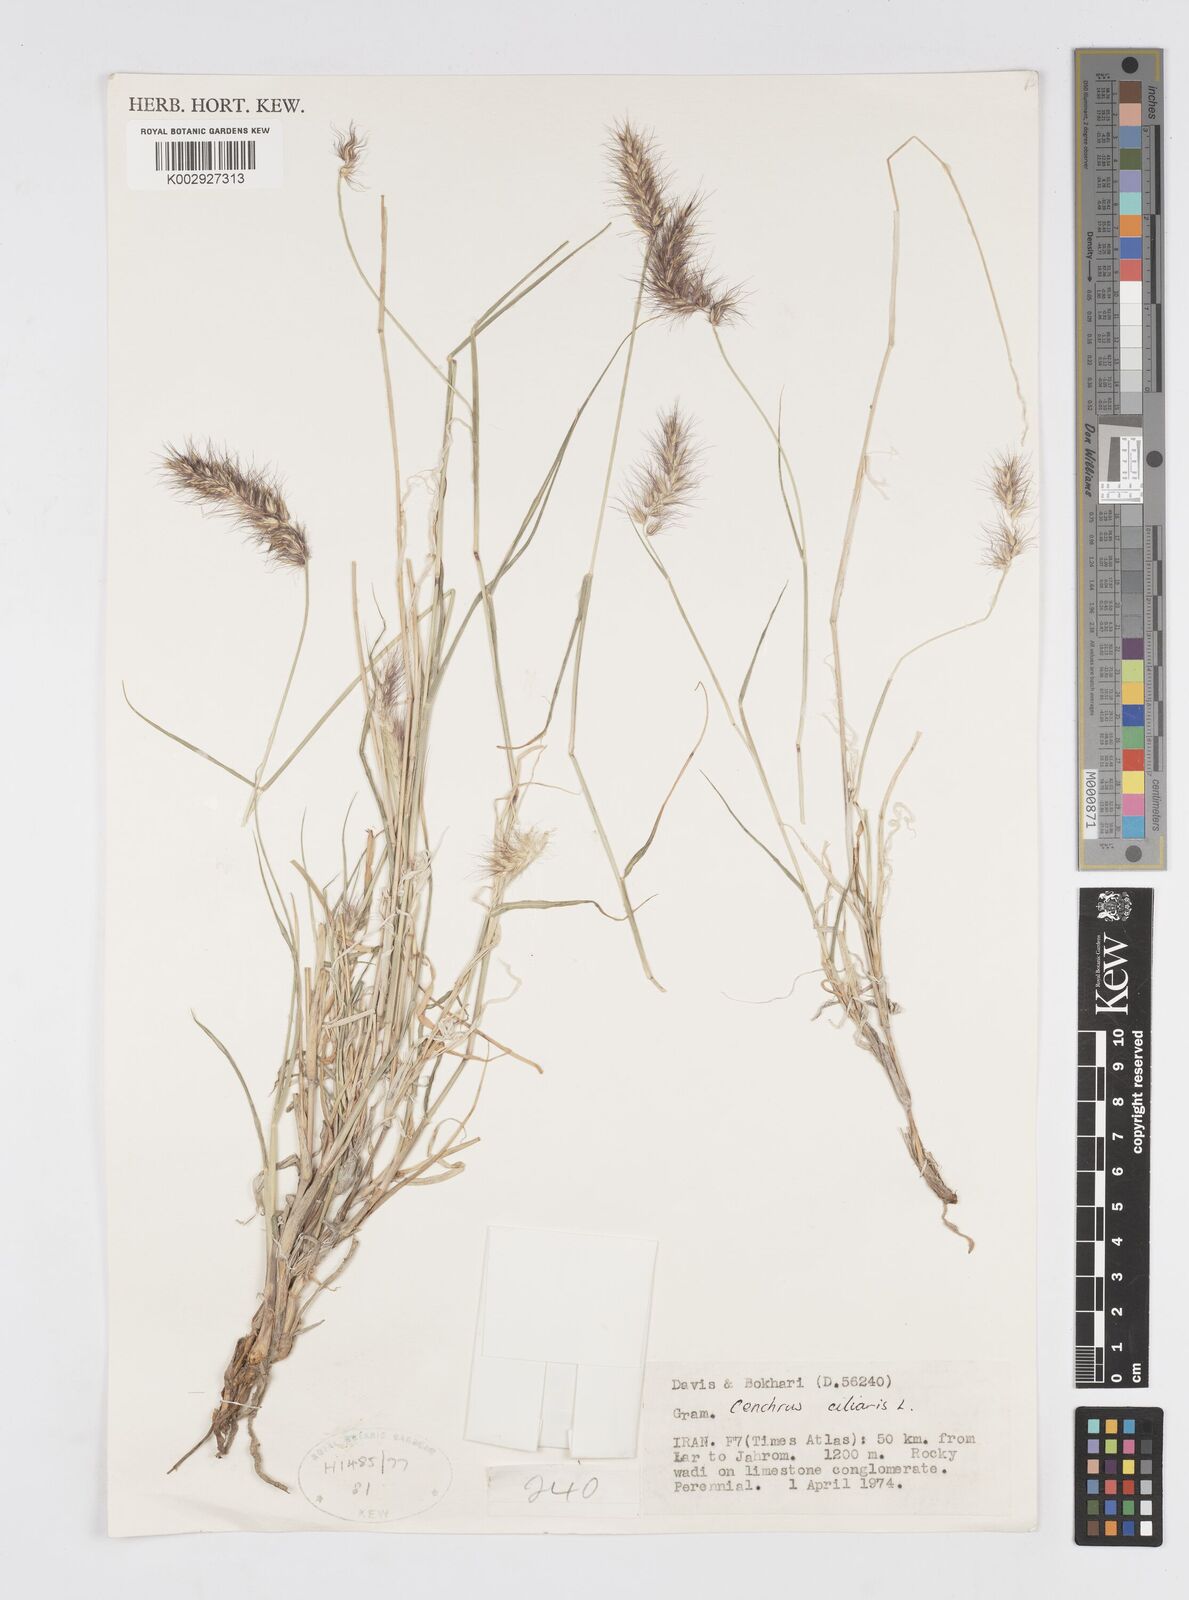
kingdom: Plantae
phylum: Tracheophyta
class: Liliopsida
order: Poales
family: Poaceae
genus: Cenchrus
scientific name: Cenchrus ciliaris
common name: Buffelgrass
